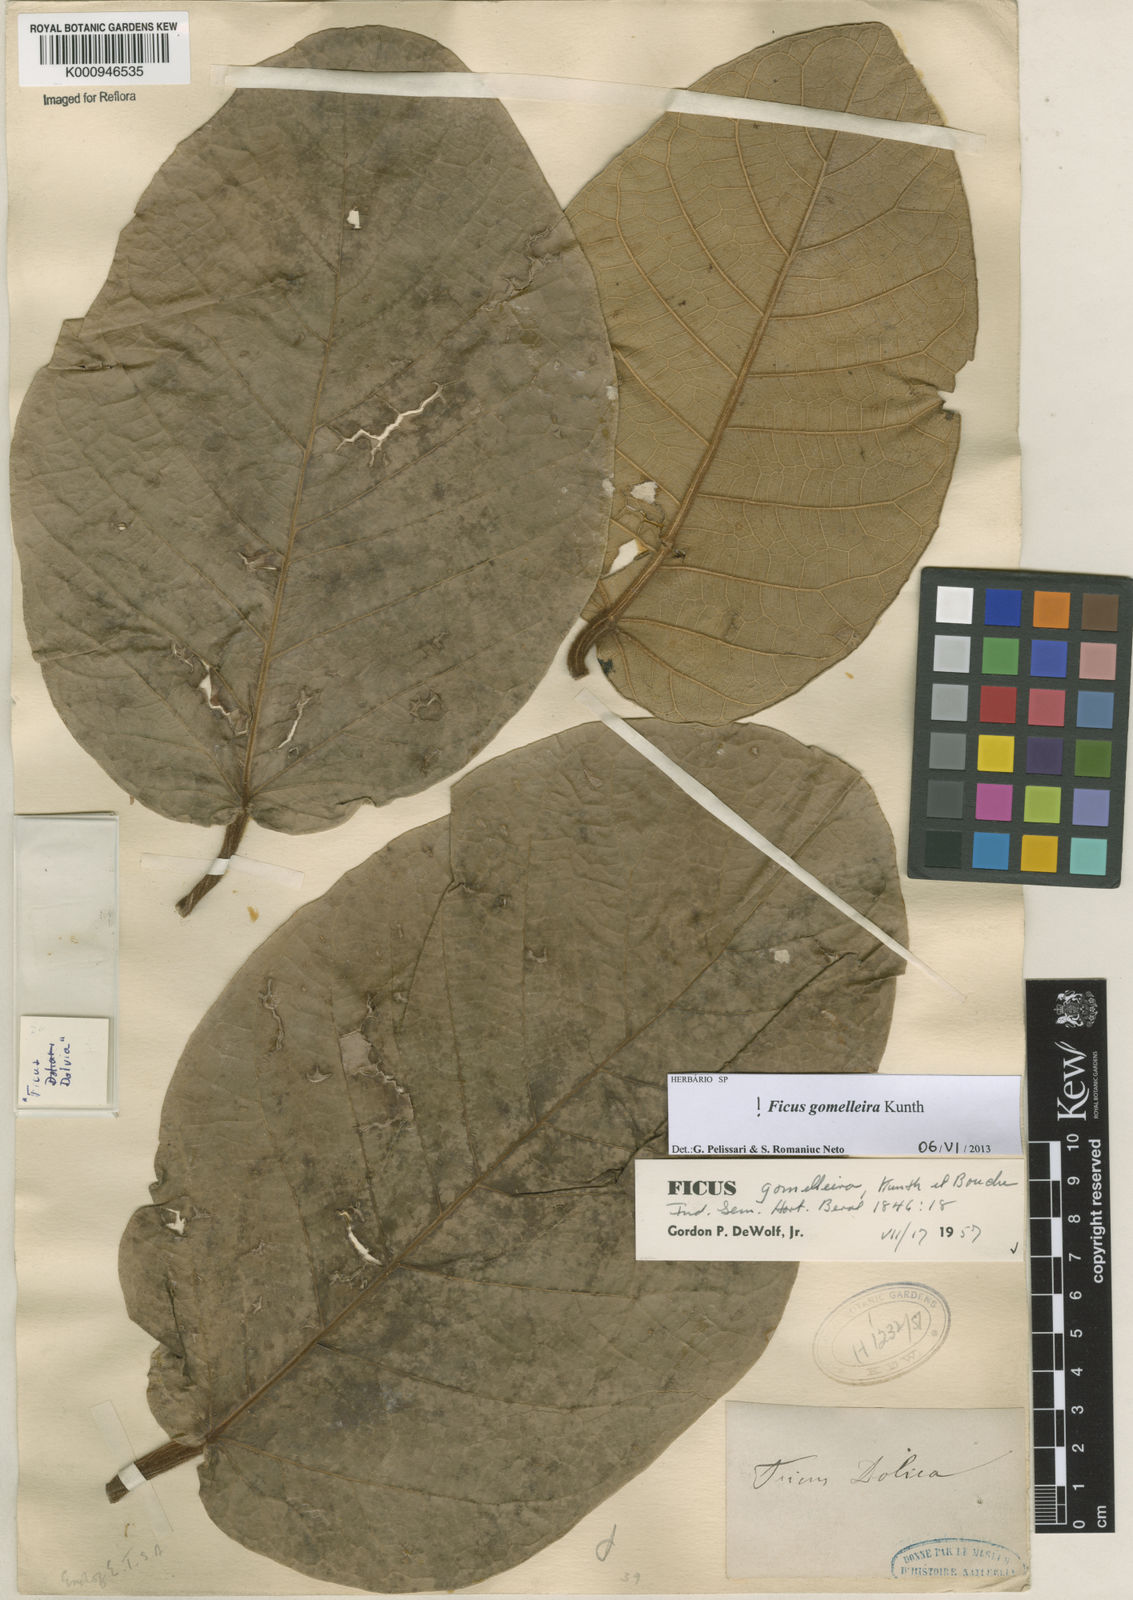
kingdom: Plantae
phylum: Tracheophyta
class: Magnoliopsida
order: Rosales
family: Moraceae
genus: Ficus
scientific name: Ficus gomelleira
